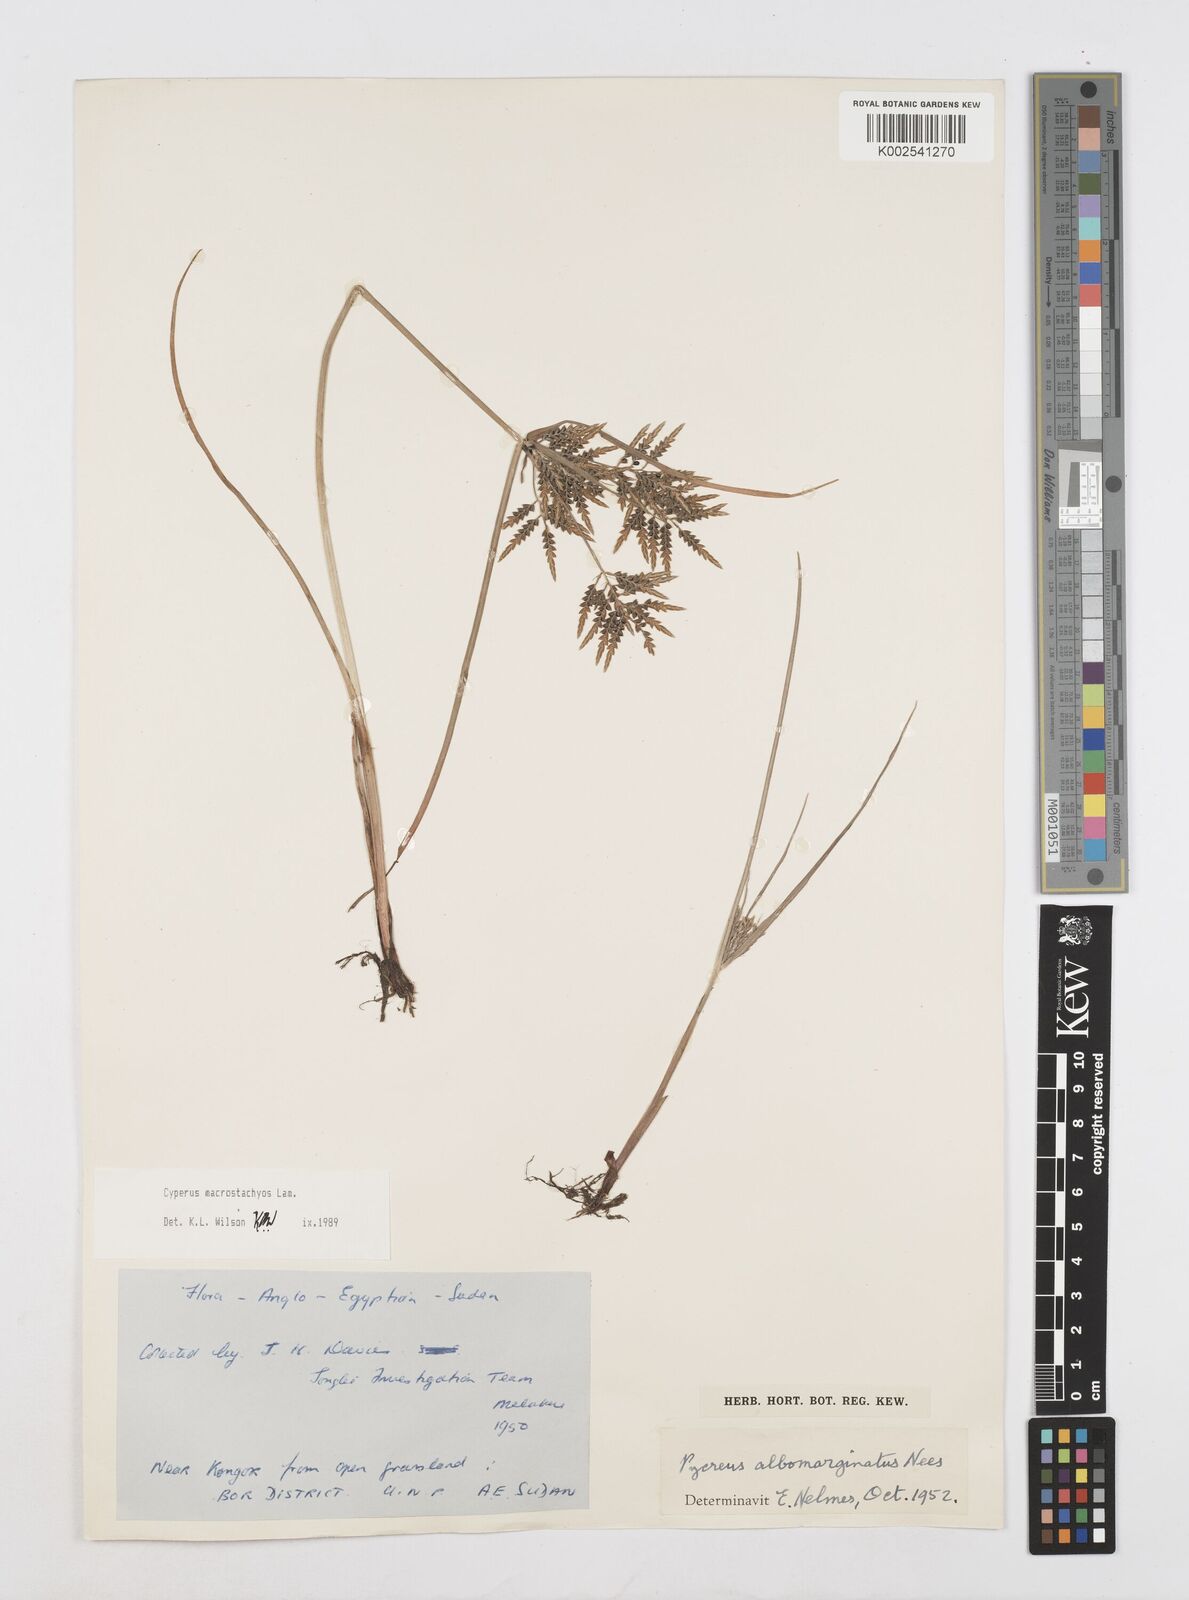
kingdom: Plantae
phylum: Tracheophyta
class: Liliopsida
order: Poales
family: Cyperaceae
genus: Cyperus
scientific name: Cyperus macrostachyos
